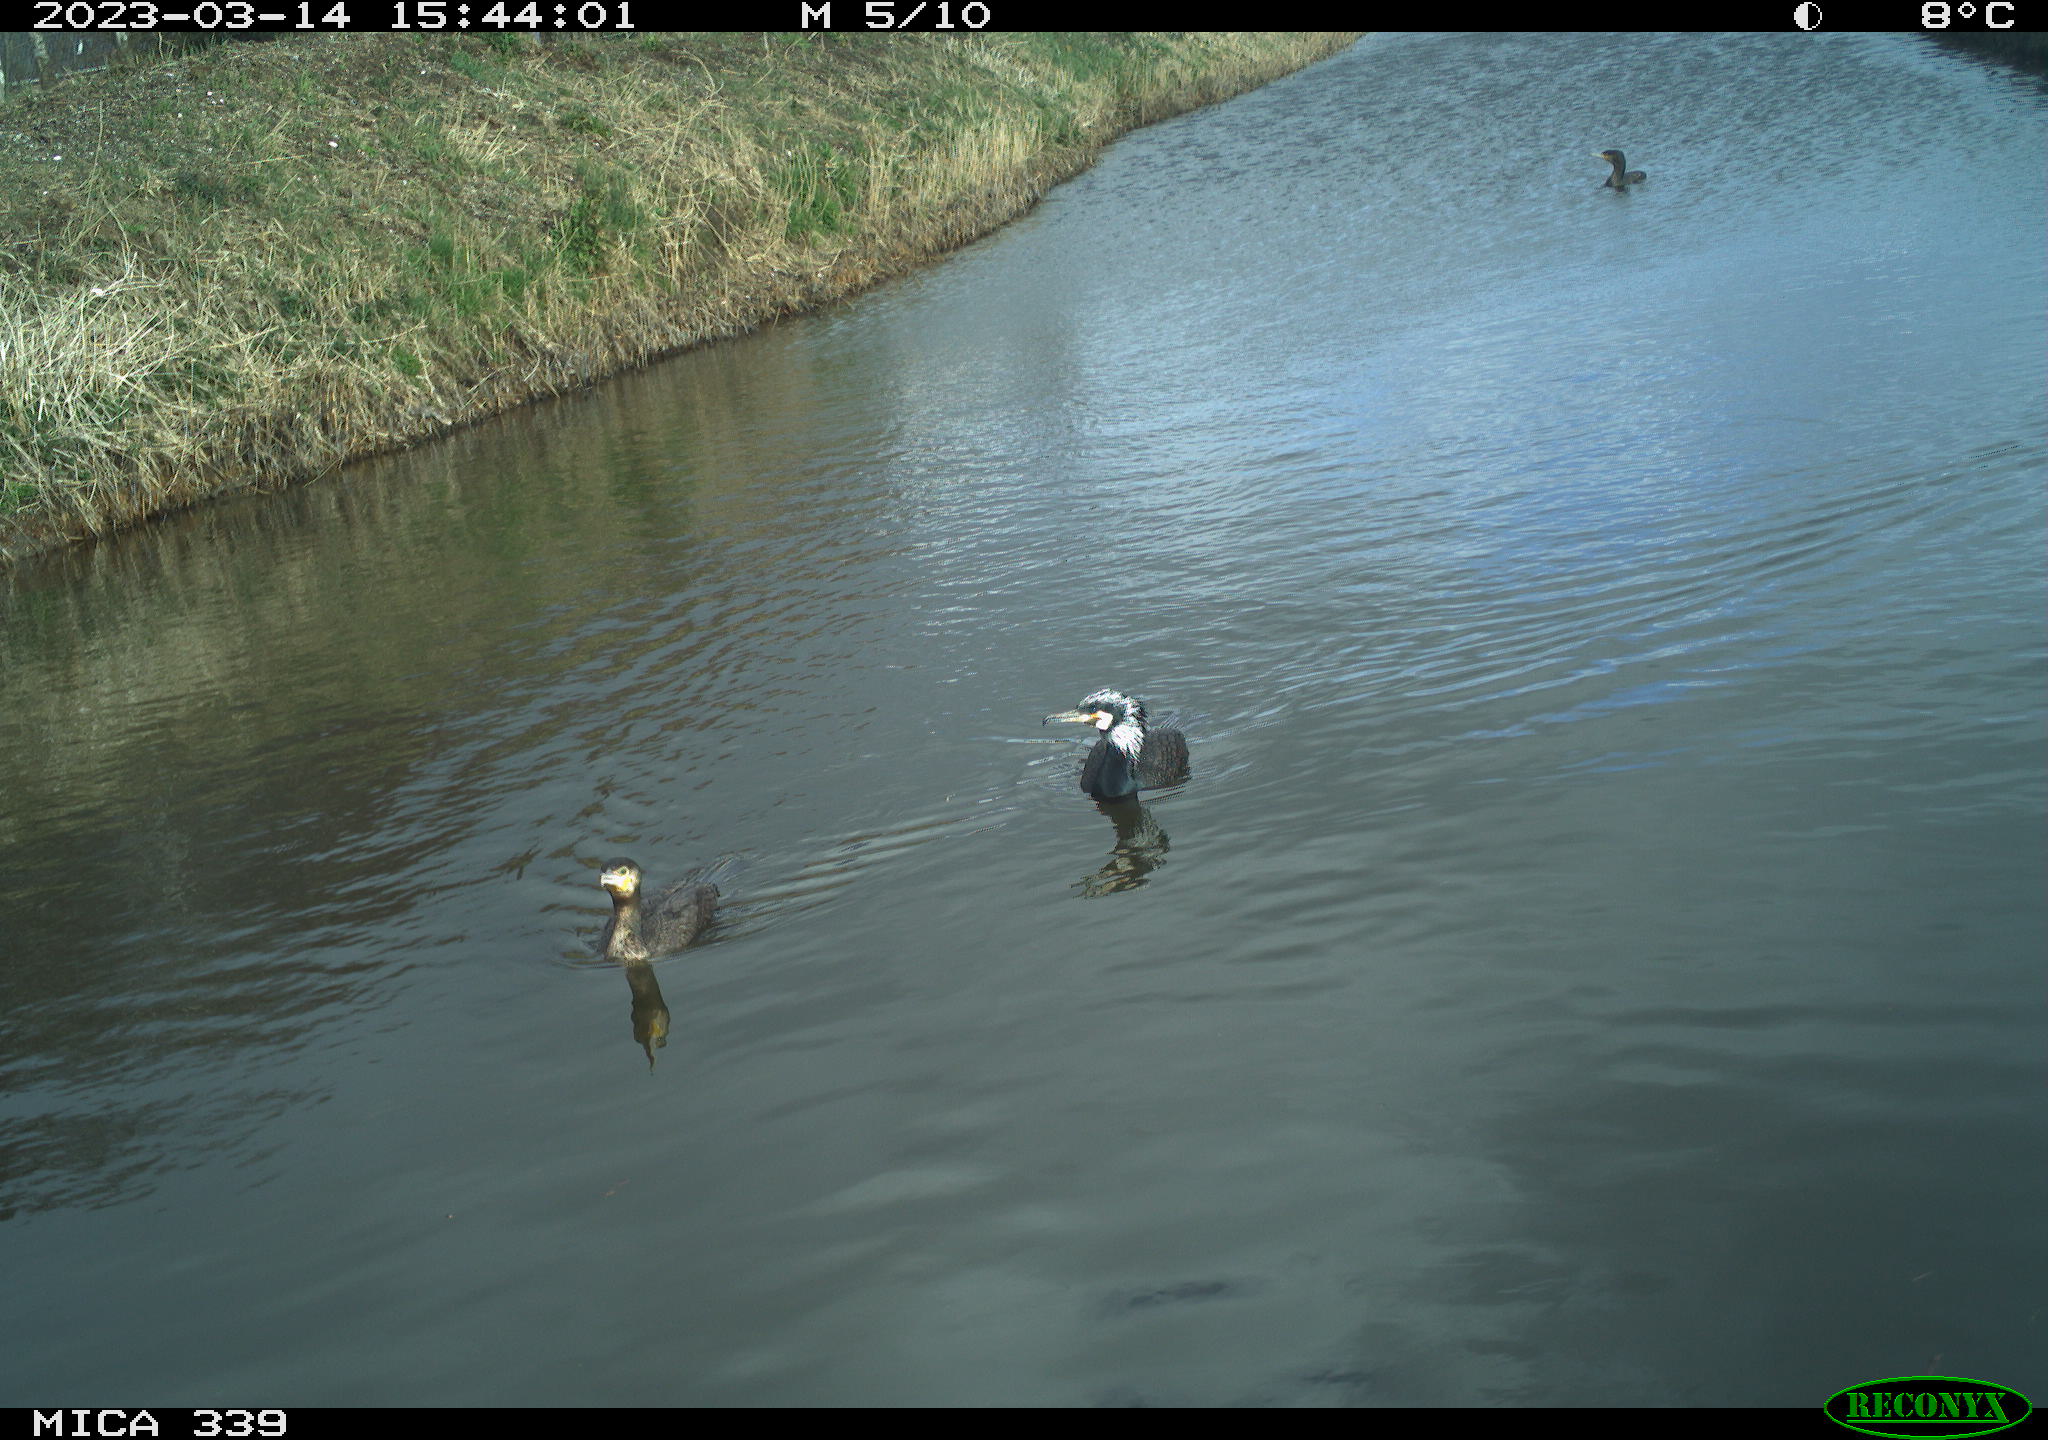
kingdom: Animalia
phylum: Chordata
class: Aves
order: Suliformes
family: Phalacrocoracidae
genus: Phalacrocorax
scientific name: Phalacrocorax carbo
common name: Great cormorant
